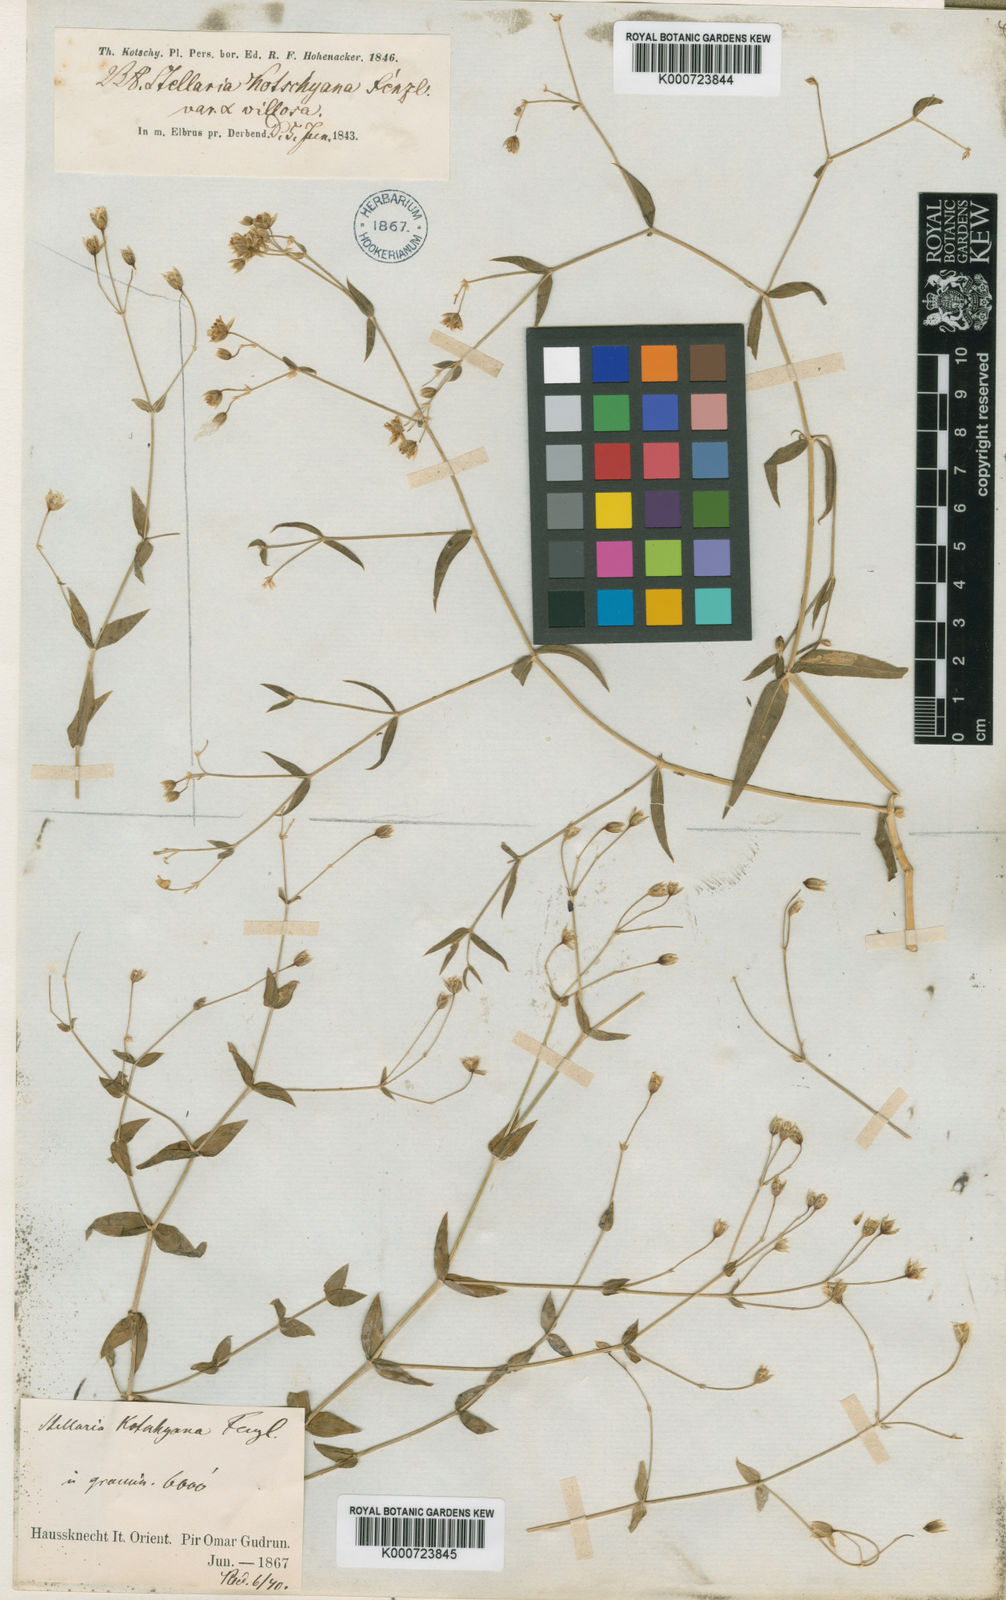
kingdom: Plantae
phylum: Tracheophyta
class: Magnoliopsida
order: Caryophyllales
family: Caryophyllaceae
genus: Mesostemma
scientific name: Mesostemma
